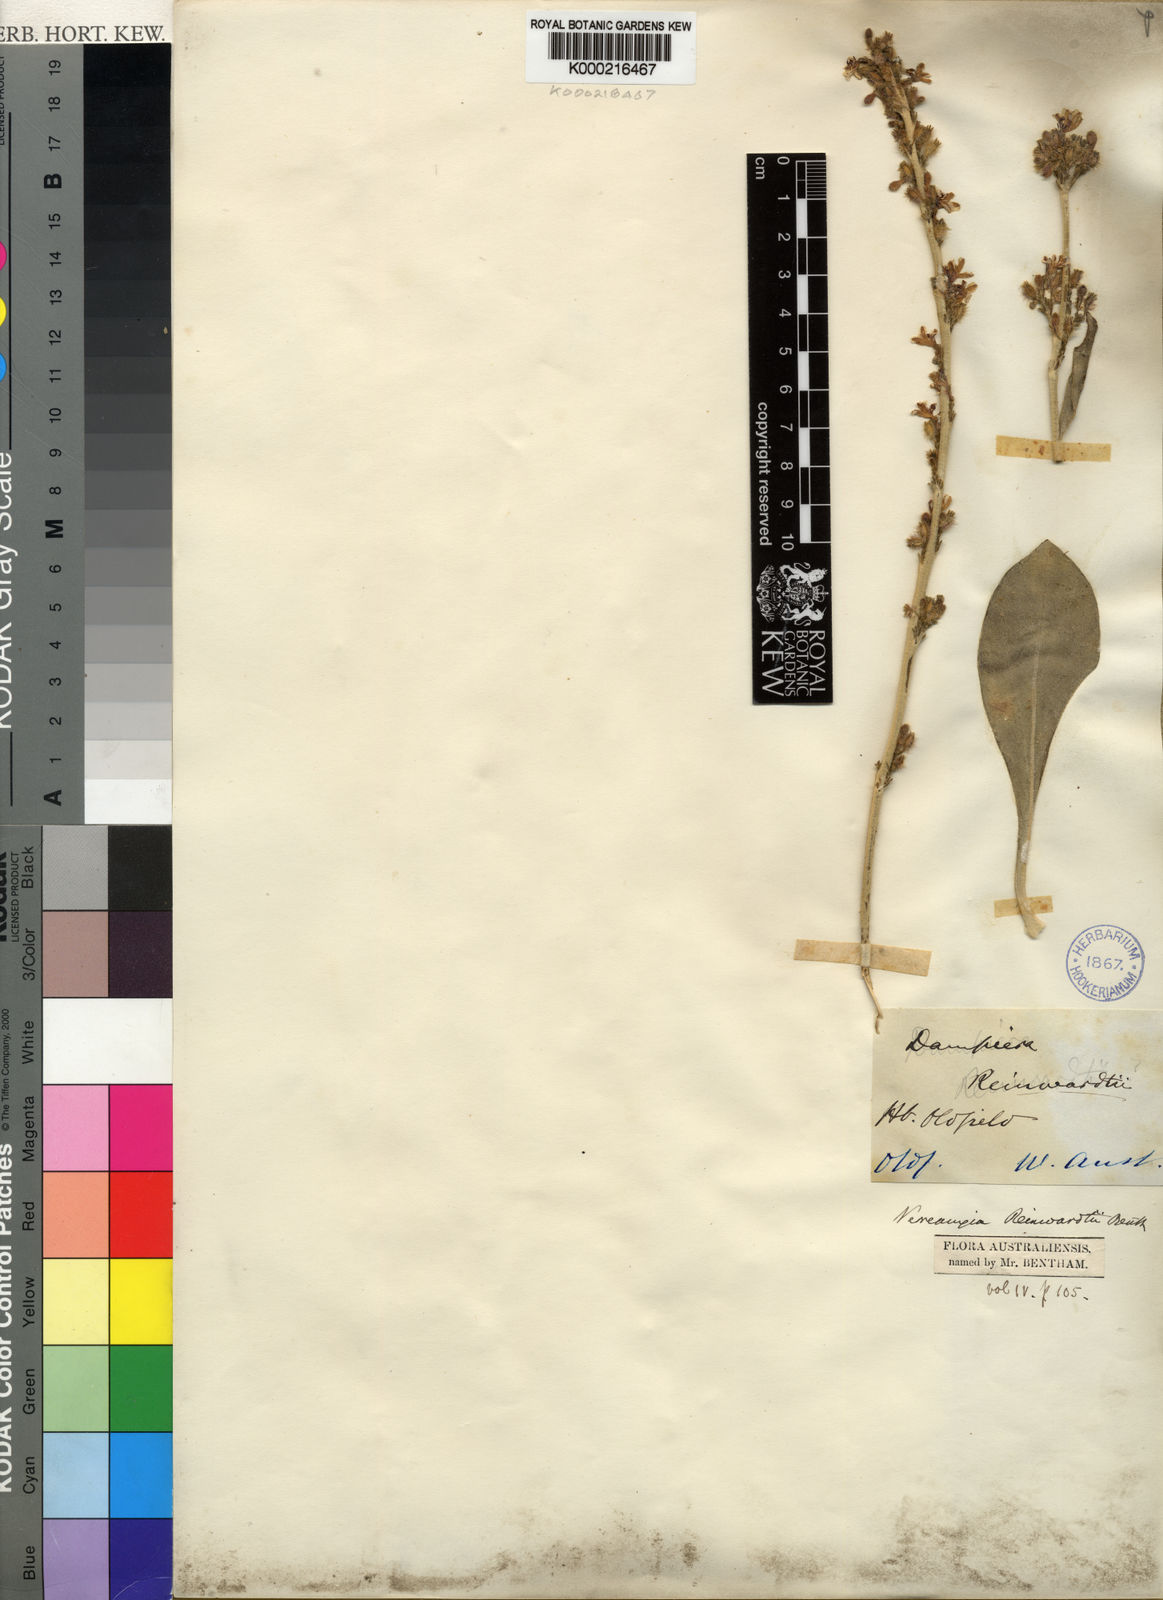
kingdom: Plantae
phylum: Tracheophyta
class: Magnoliopsida
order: Asterales
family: Goodeniaceae
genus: Goodenia
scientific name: Goodenia reinwardtii
